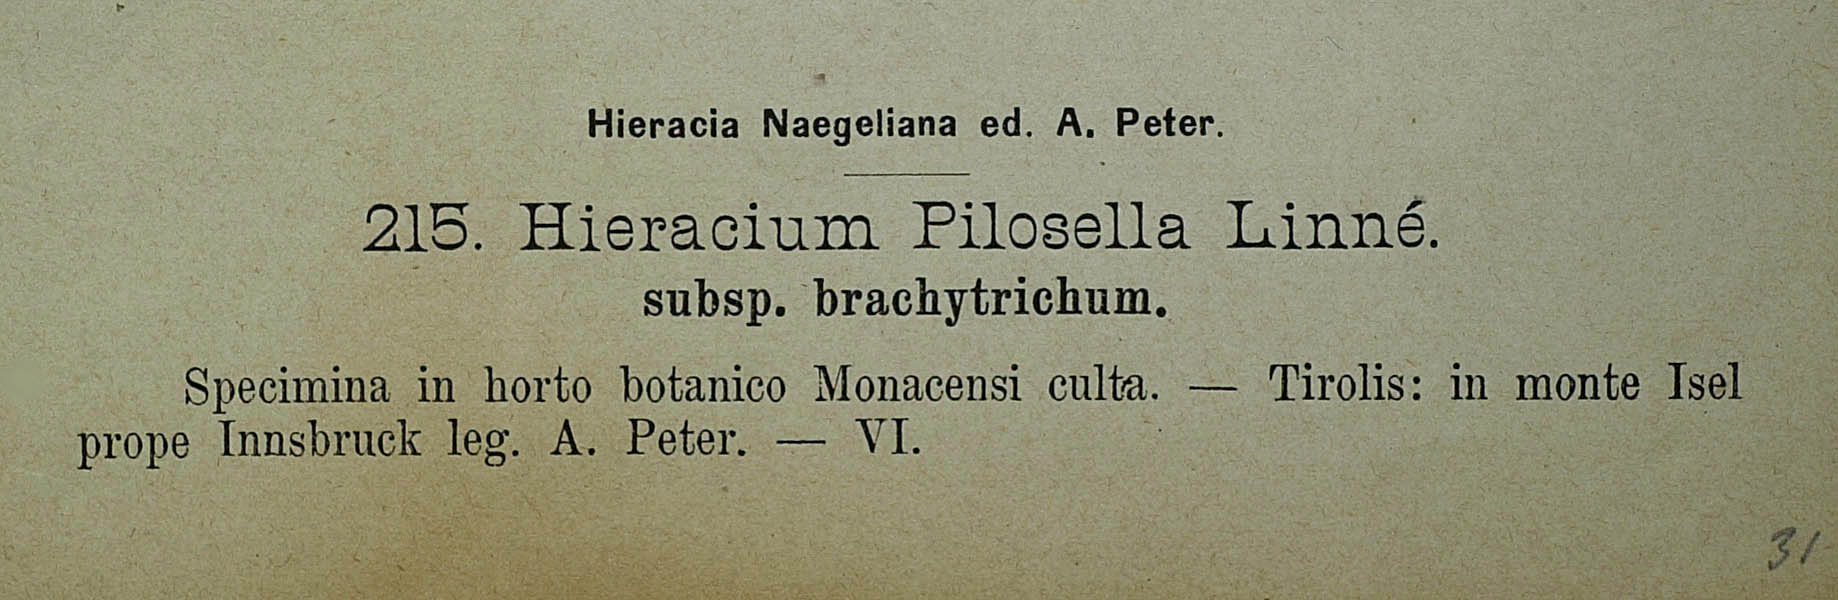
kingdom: Plantae
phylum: Tracheophyta
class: Magnoliopsida
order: Asterales
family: Asteraceae
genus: Pilosella
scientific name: Pilosella officinarum
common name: Mouse-ear hawkweed
